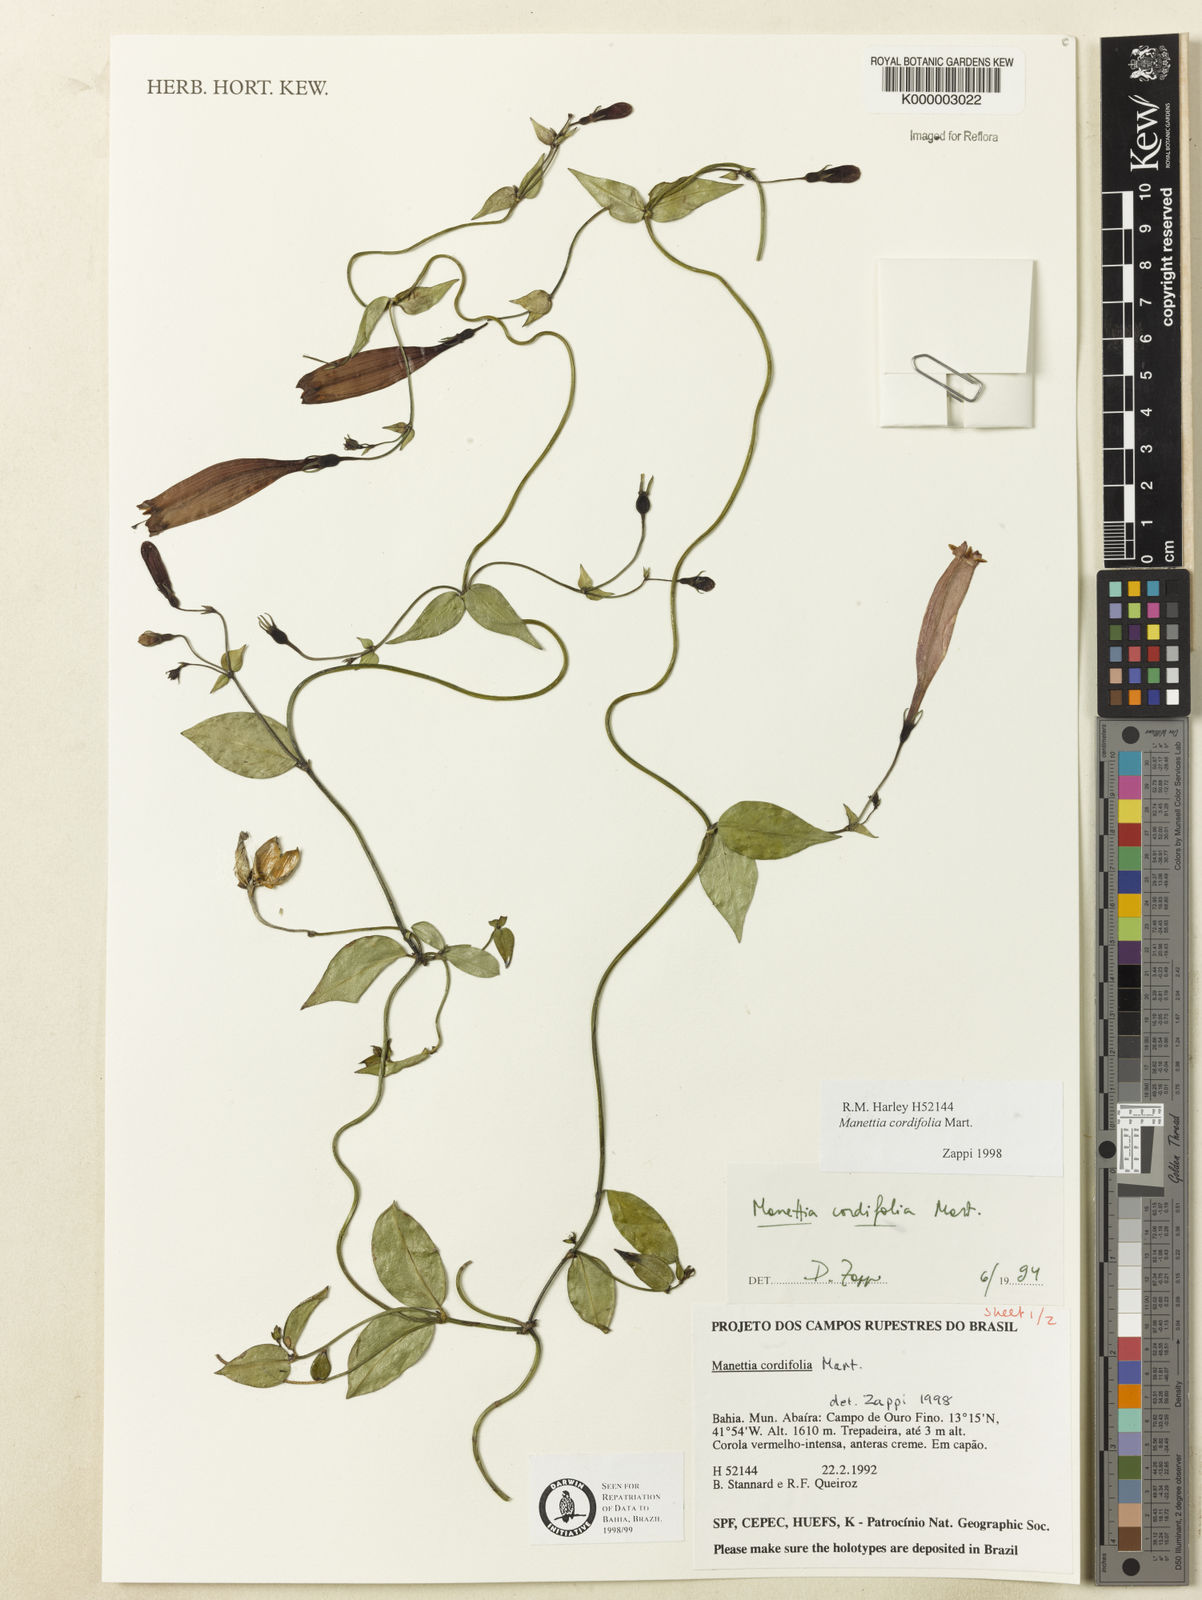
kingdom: Plantae
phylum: Tracheophyta
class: Magnoliopsida
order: Gentianales
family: Rubiaceae
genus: Manettia
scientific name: Manettia cordifolia
